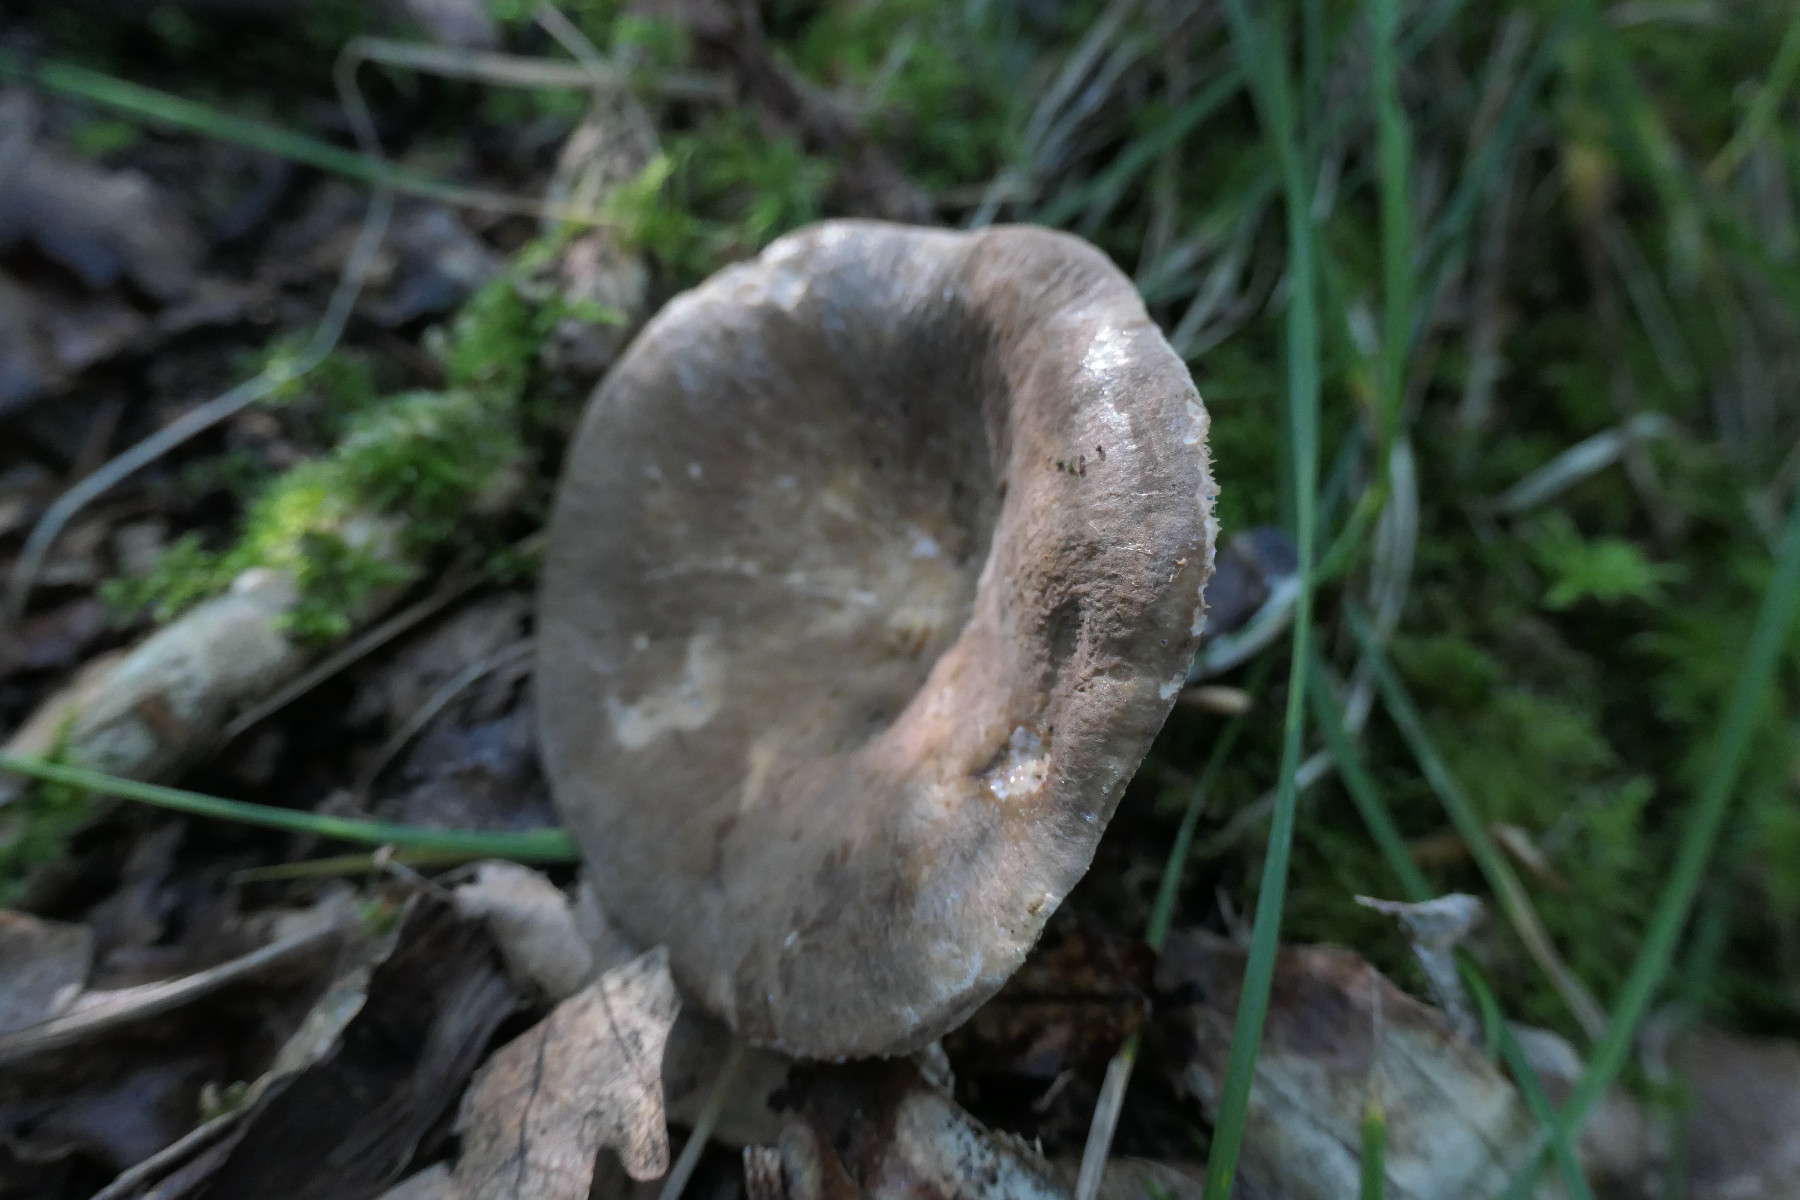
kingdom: Fungi
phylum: Basidiomycota
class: Agaricomycetes
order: Russulales
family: Russulaceae
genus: Lactarius
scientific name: Lactarius pterosporus
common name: vingesporet mælkehat
